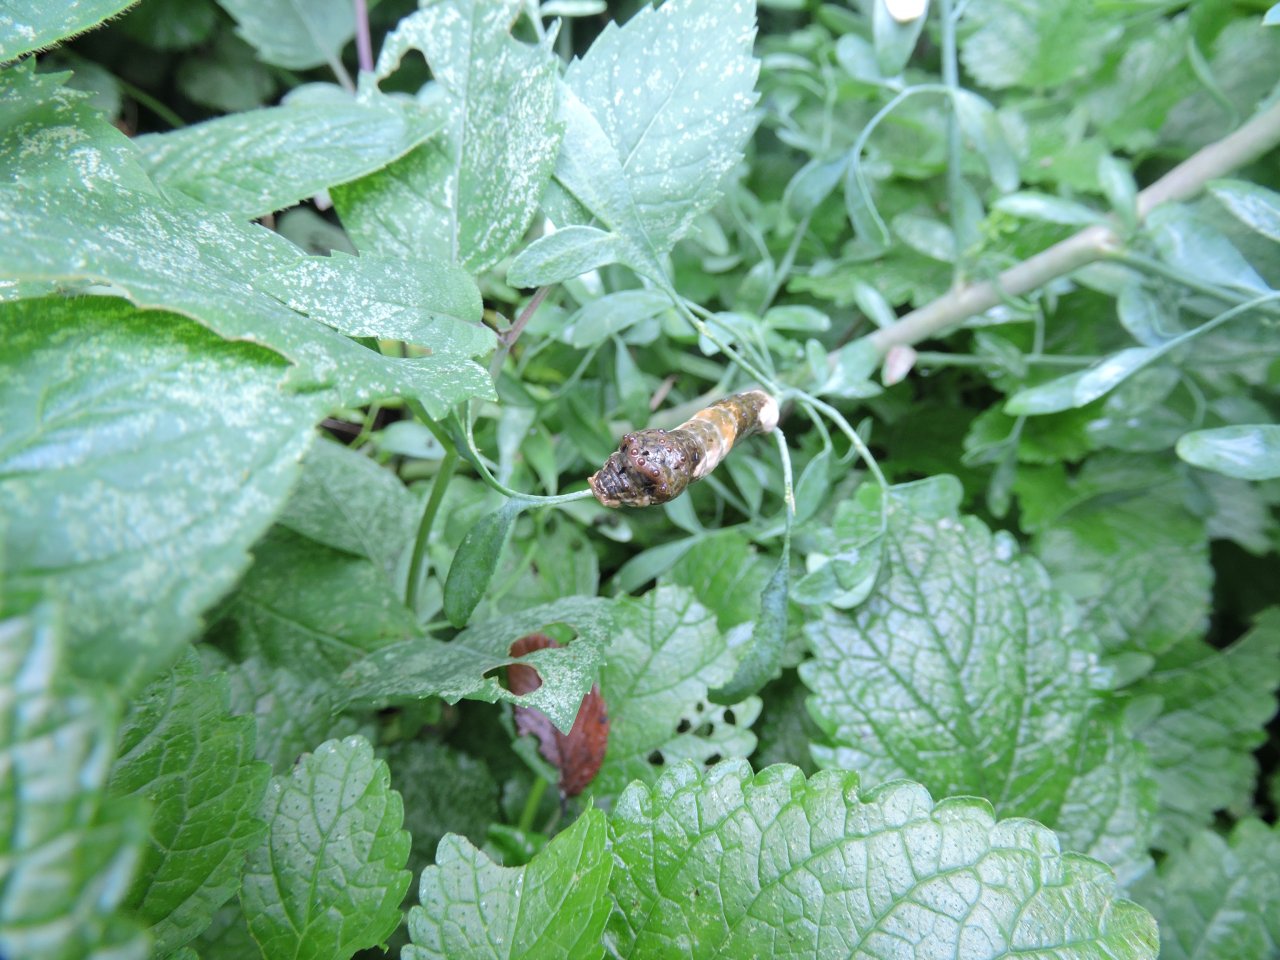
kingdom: Animalia
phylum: Arthropoda
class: Insecta
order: Lepidoptera
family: Papilionidae
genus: Papilio
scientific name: Papilio cresphontes
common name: Eastern Giant Swallowtail
